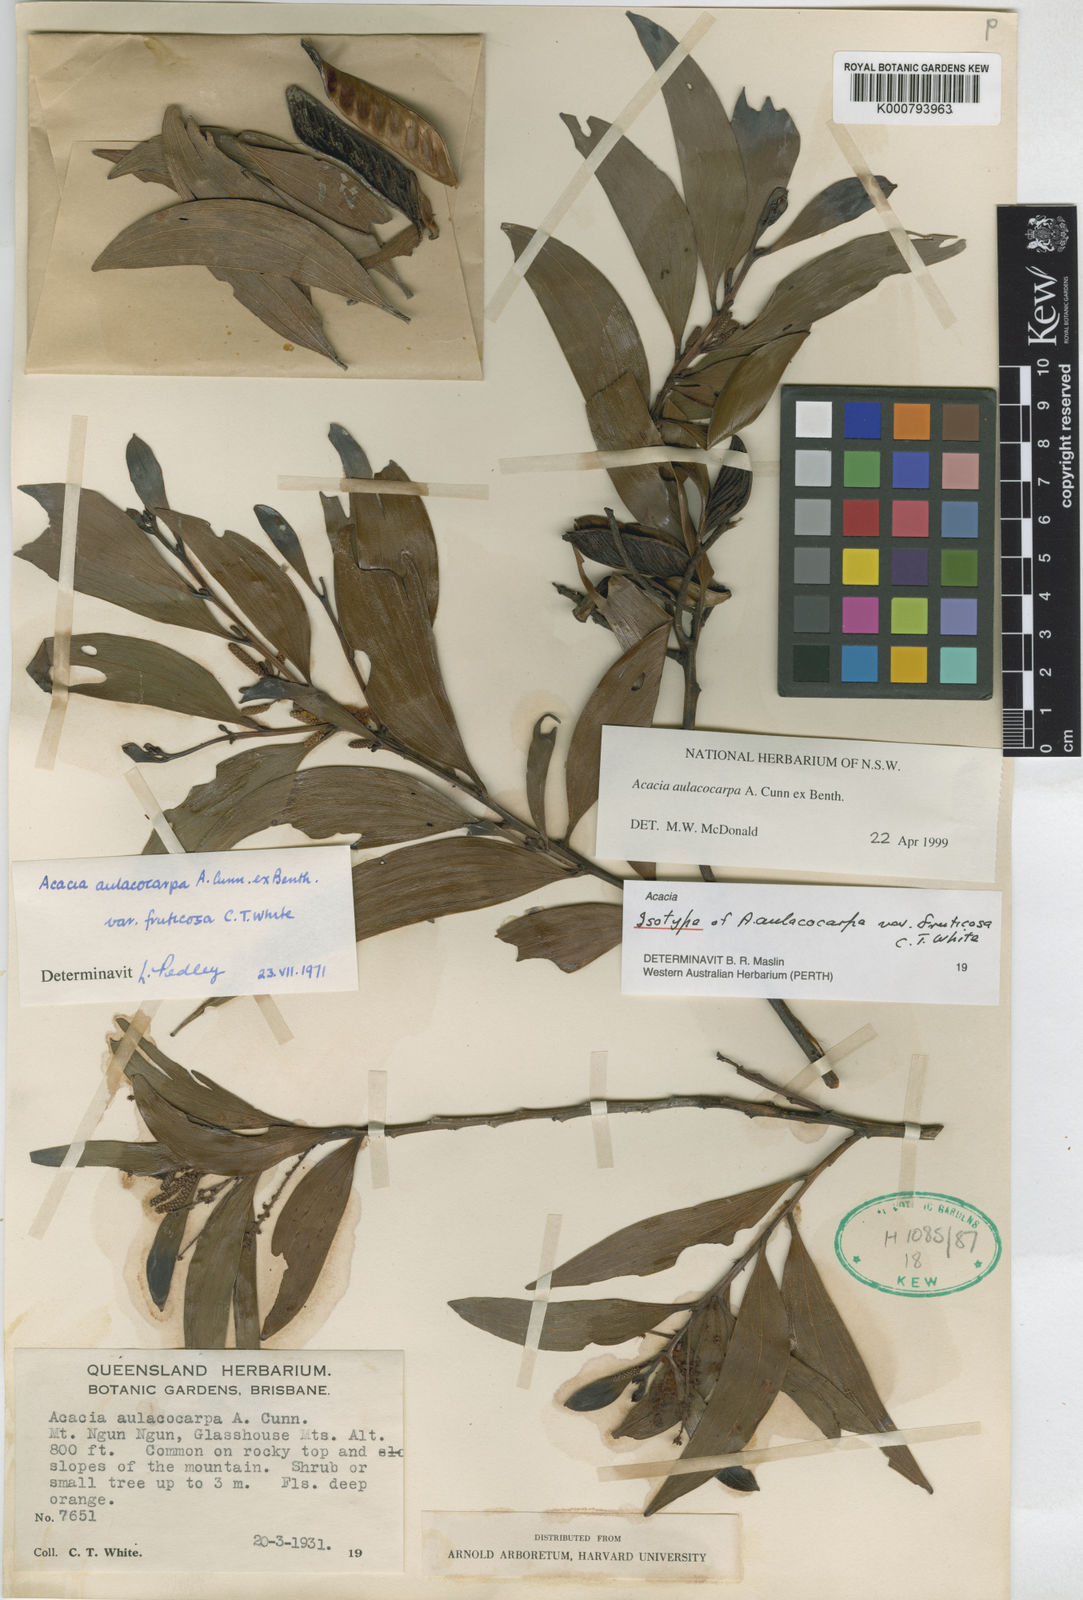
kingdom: Plantae
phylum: Tracheophyta
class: Magnoliopsida
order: Fabales
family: Fabaceae
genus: Acacia
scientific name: Acacia aulacocarpa
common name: Black wattle
